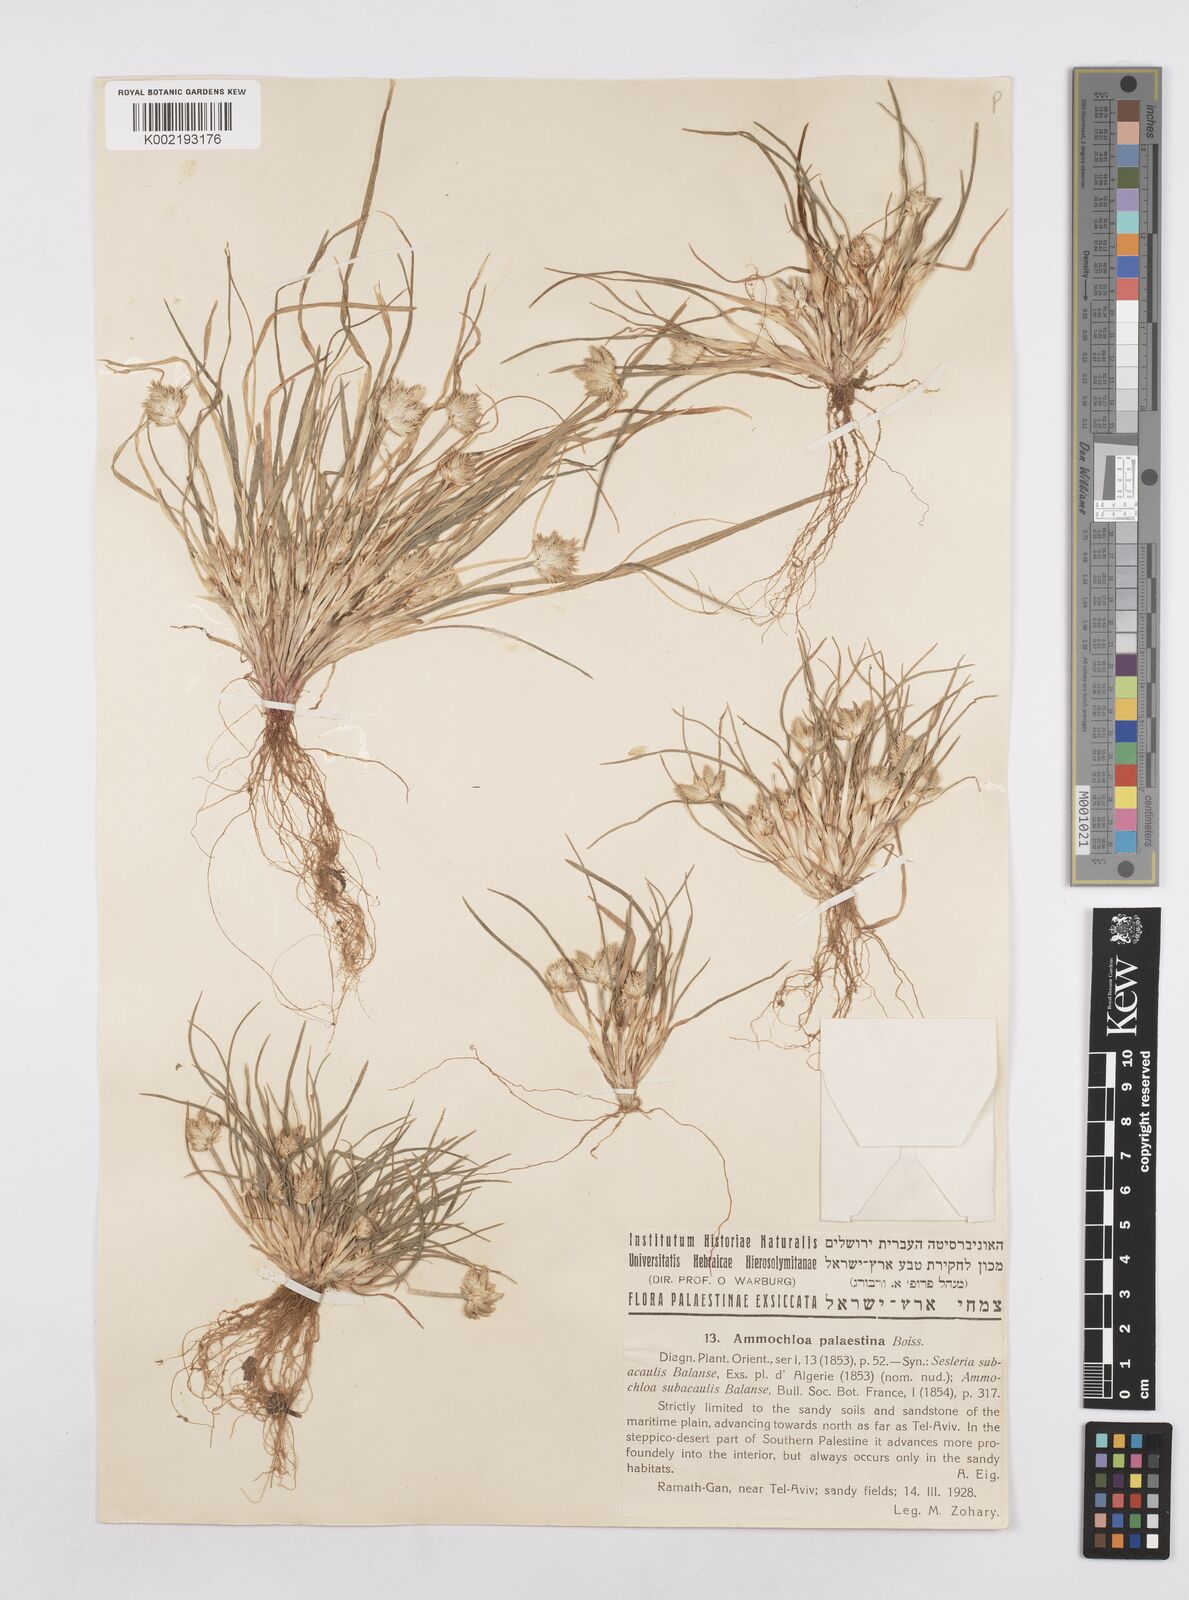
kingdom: Plantae
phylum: Tracheophyta
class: Liliopsida
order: Poales
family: Poaceae
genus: Ammochloa
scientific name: Ammochloa palaestina
